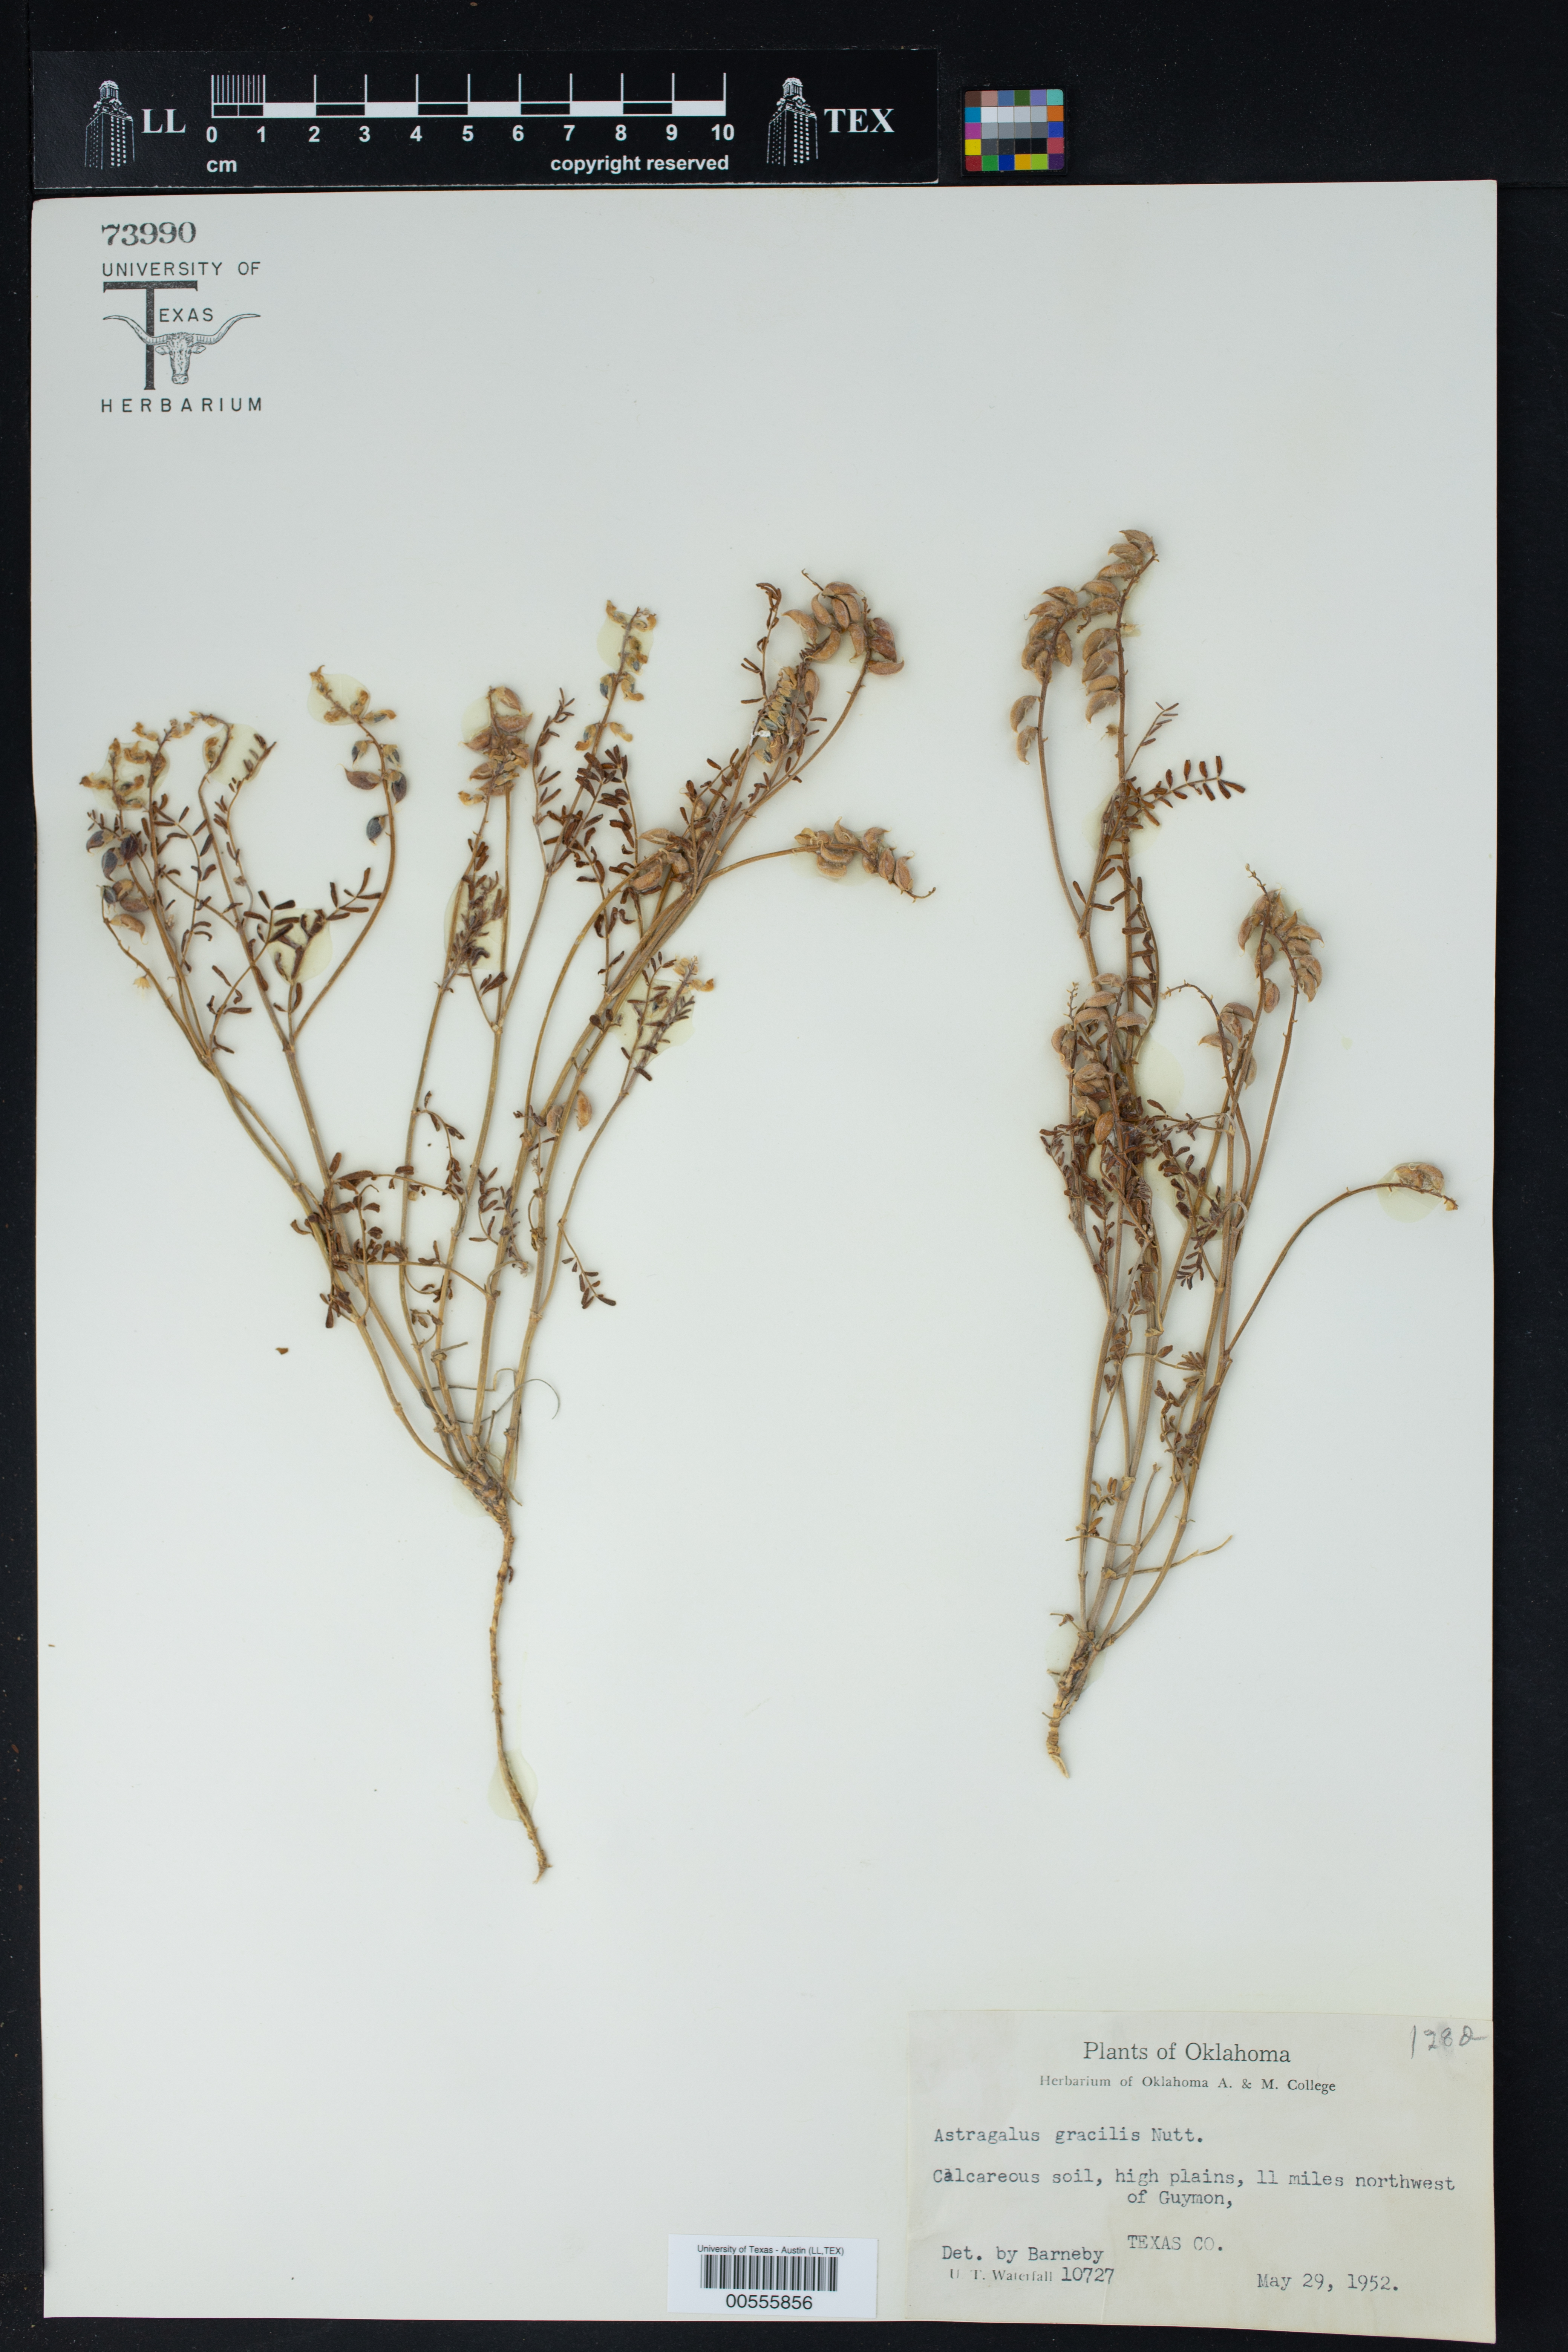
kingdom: Plantae
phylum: Tracheophyta
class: Magnoliopsida
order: Fabales
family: Fabaceae
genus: Astragalus
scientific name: Astragalus gracilis
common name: Slender milk-vetch
